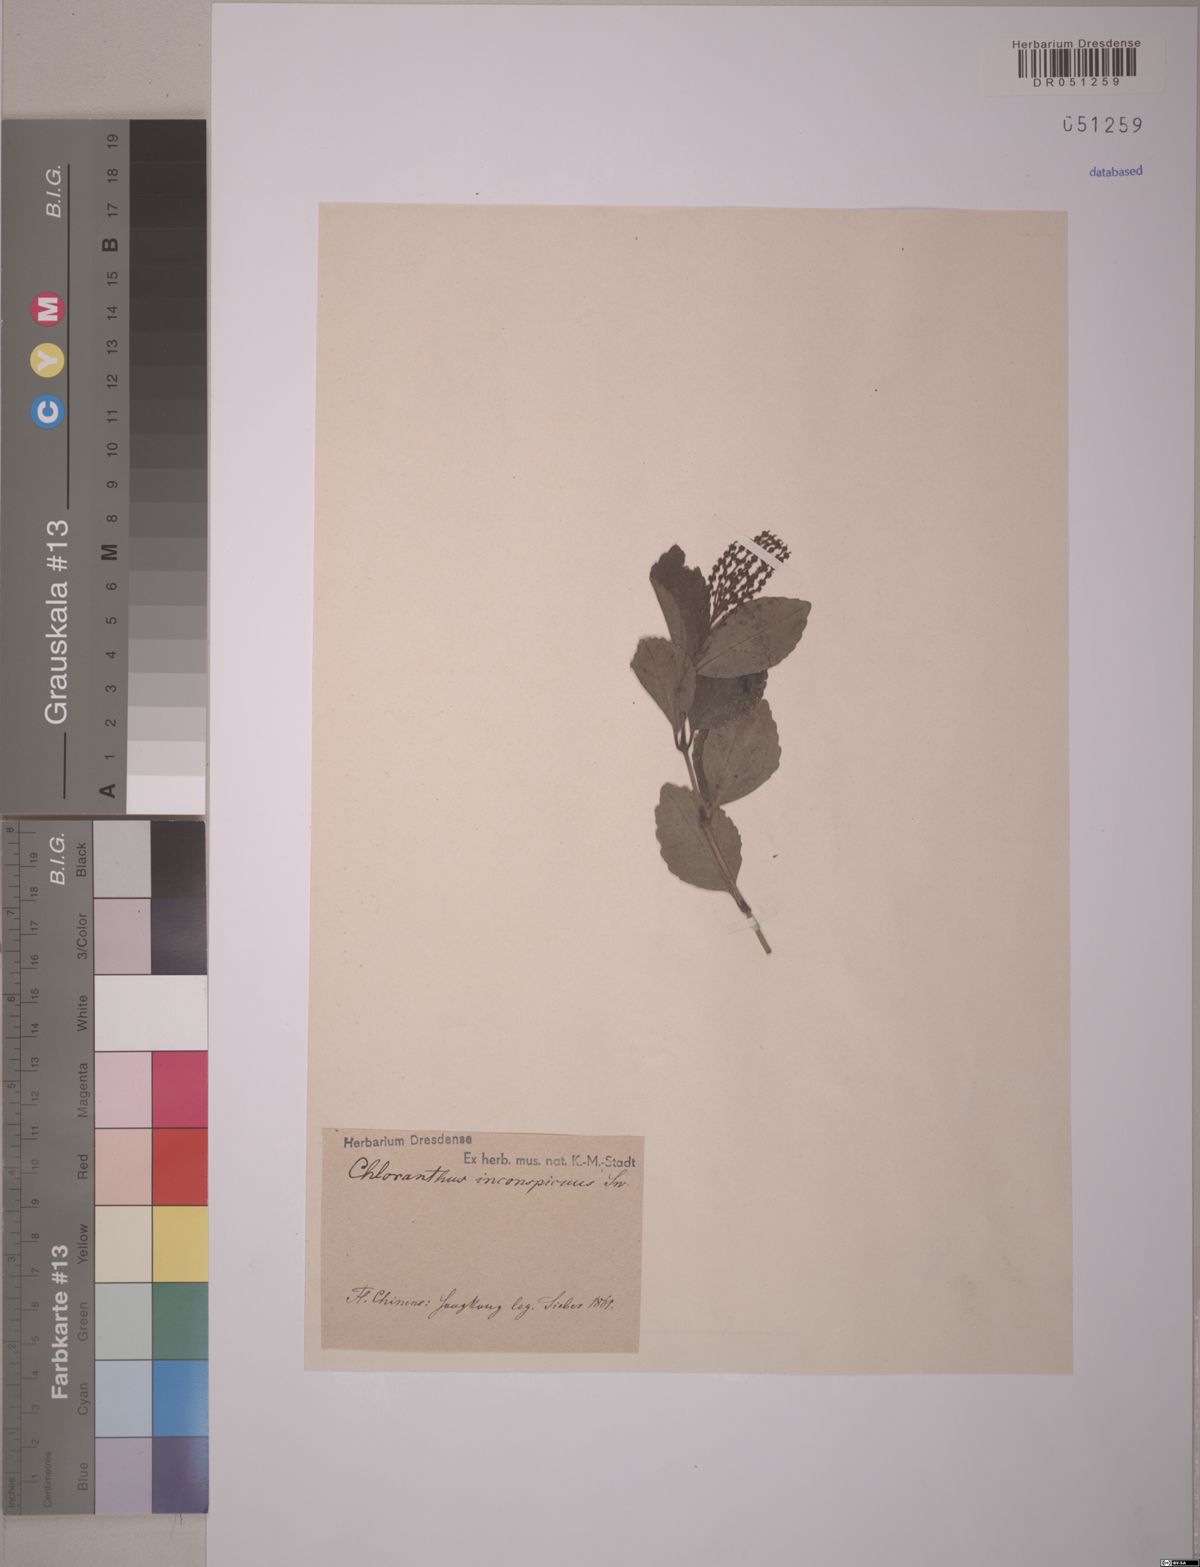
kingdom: Plantae
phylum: Tracheophyta
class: Magnoliopsida
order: Chloranthales
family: Chloranthaceae
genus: Chloranthus
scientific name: Chloranthus spicatus
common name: Chulantree
